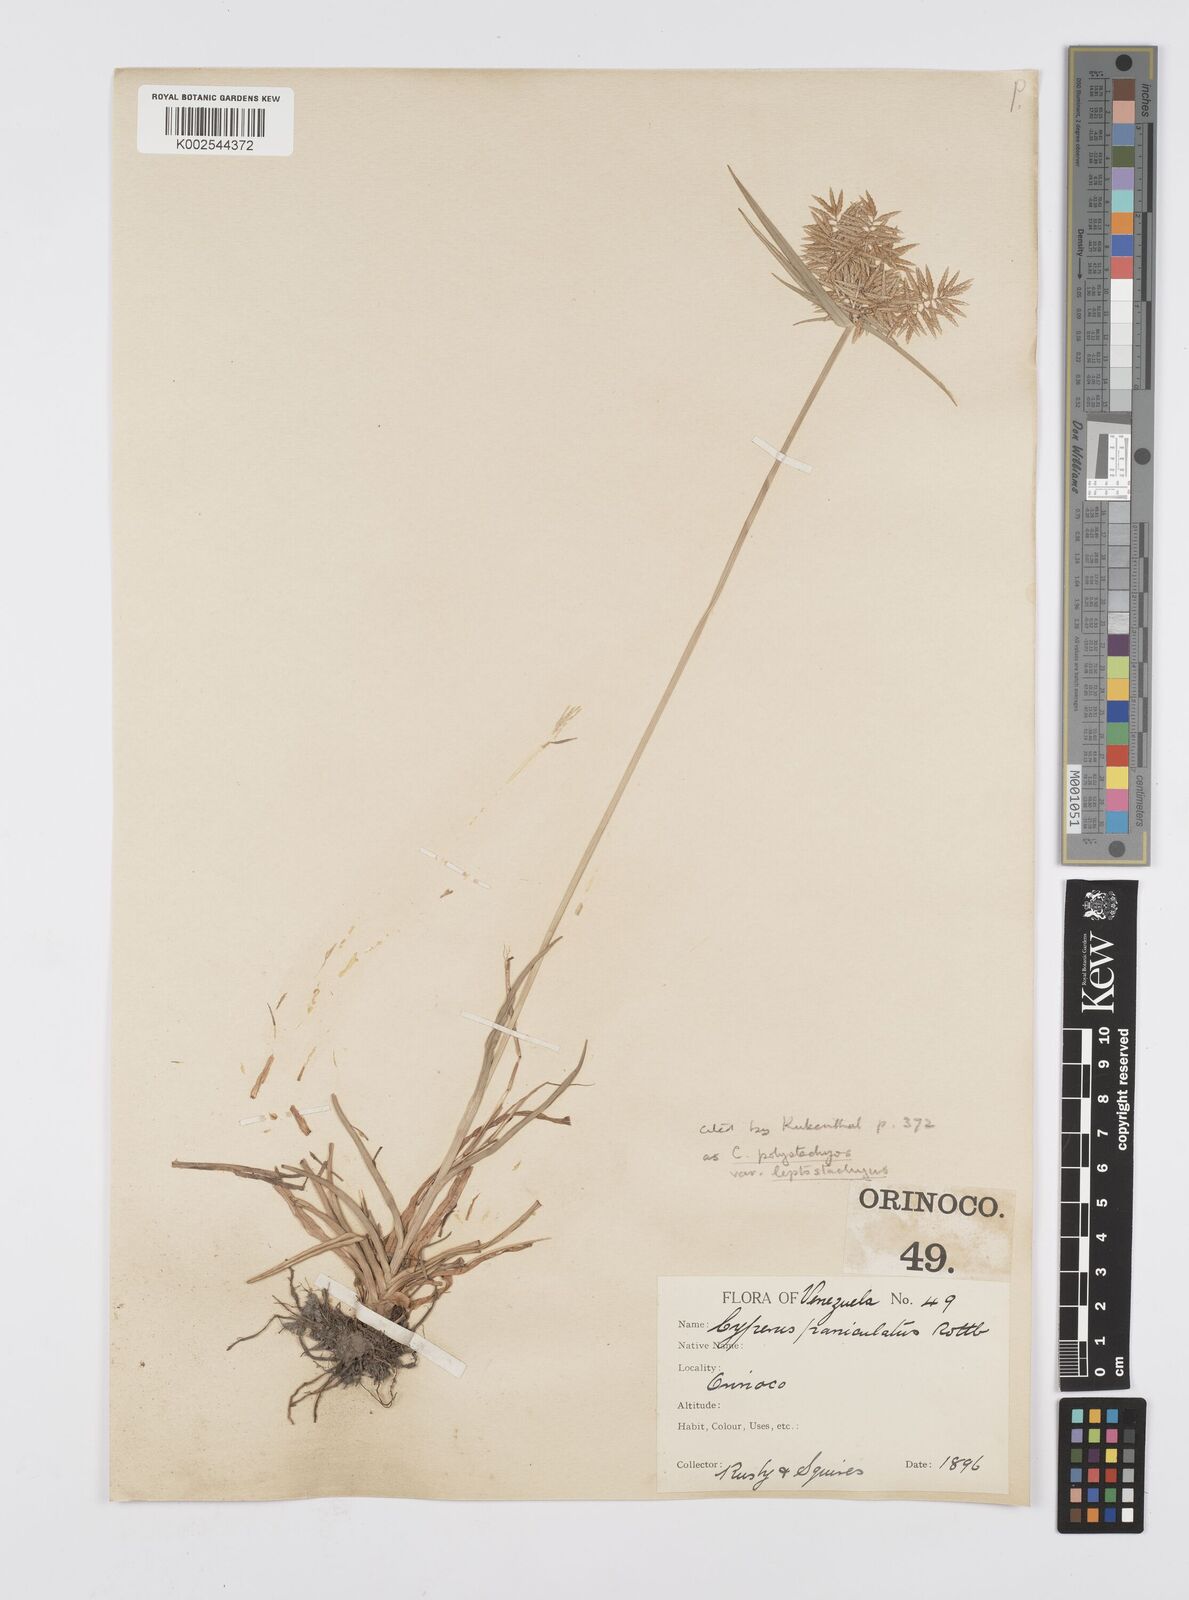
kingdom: Plantae
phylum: Tracheophyta
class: Liliopsida
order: Poales
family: Cyperaceae
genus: Cyperus
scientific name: Cyperus polystachyos
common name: Bunchy flat sedge
